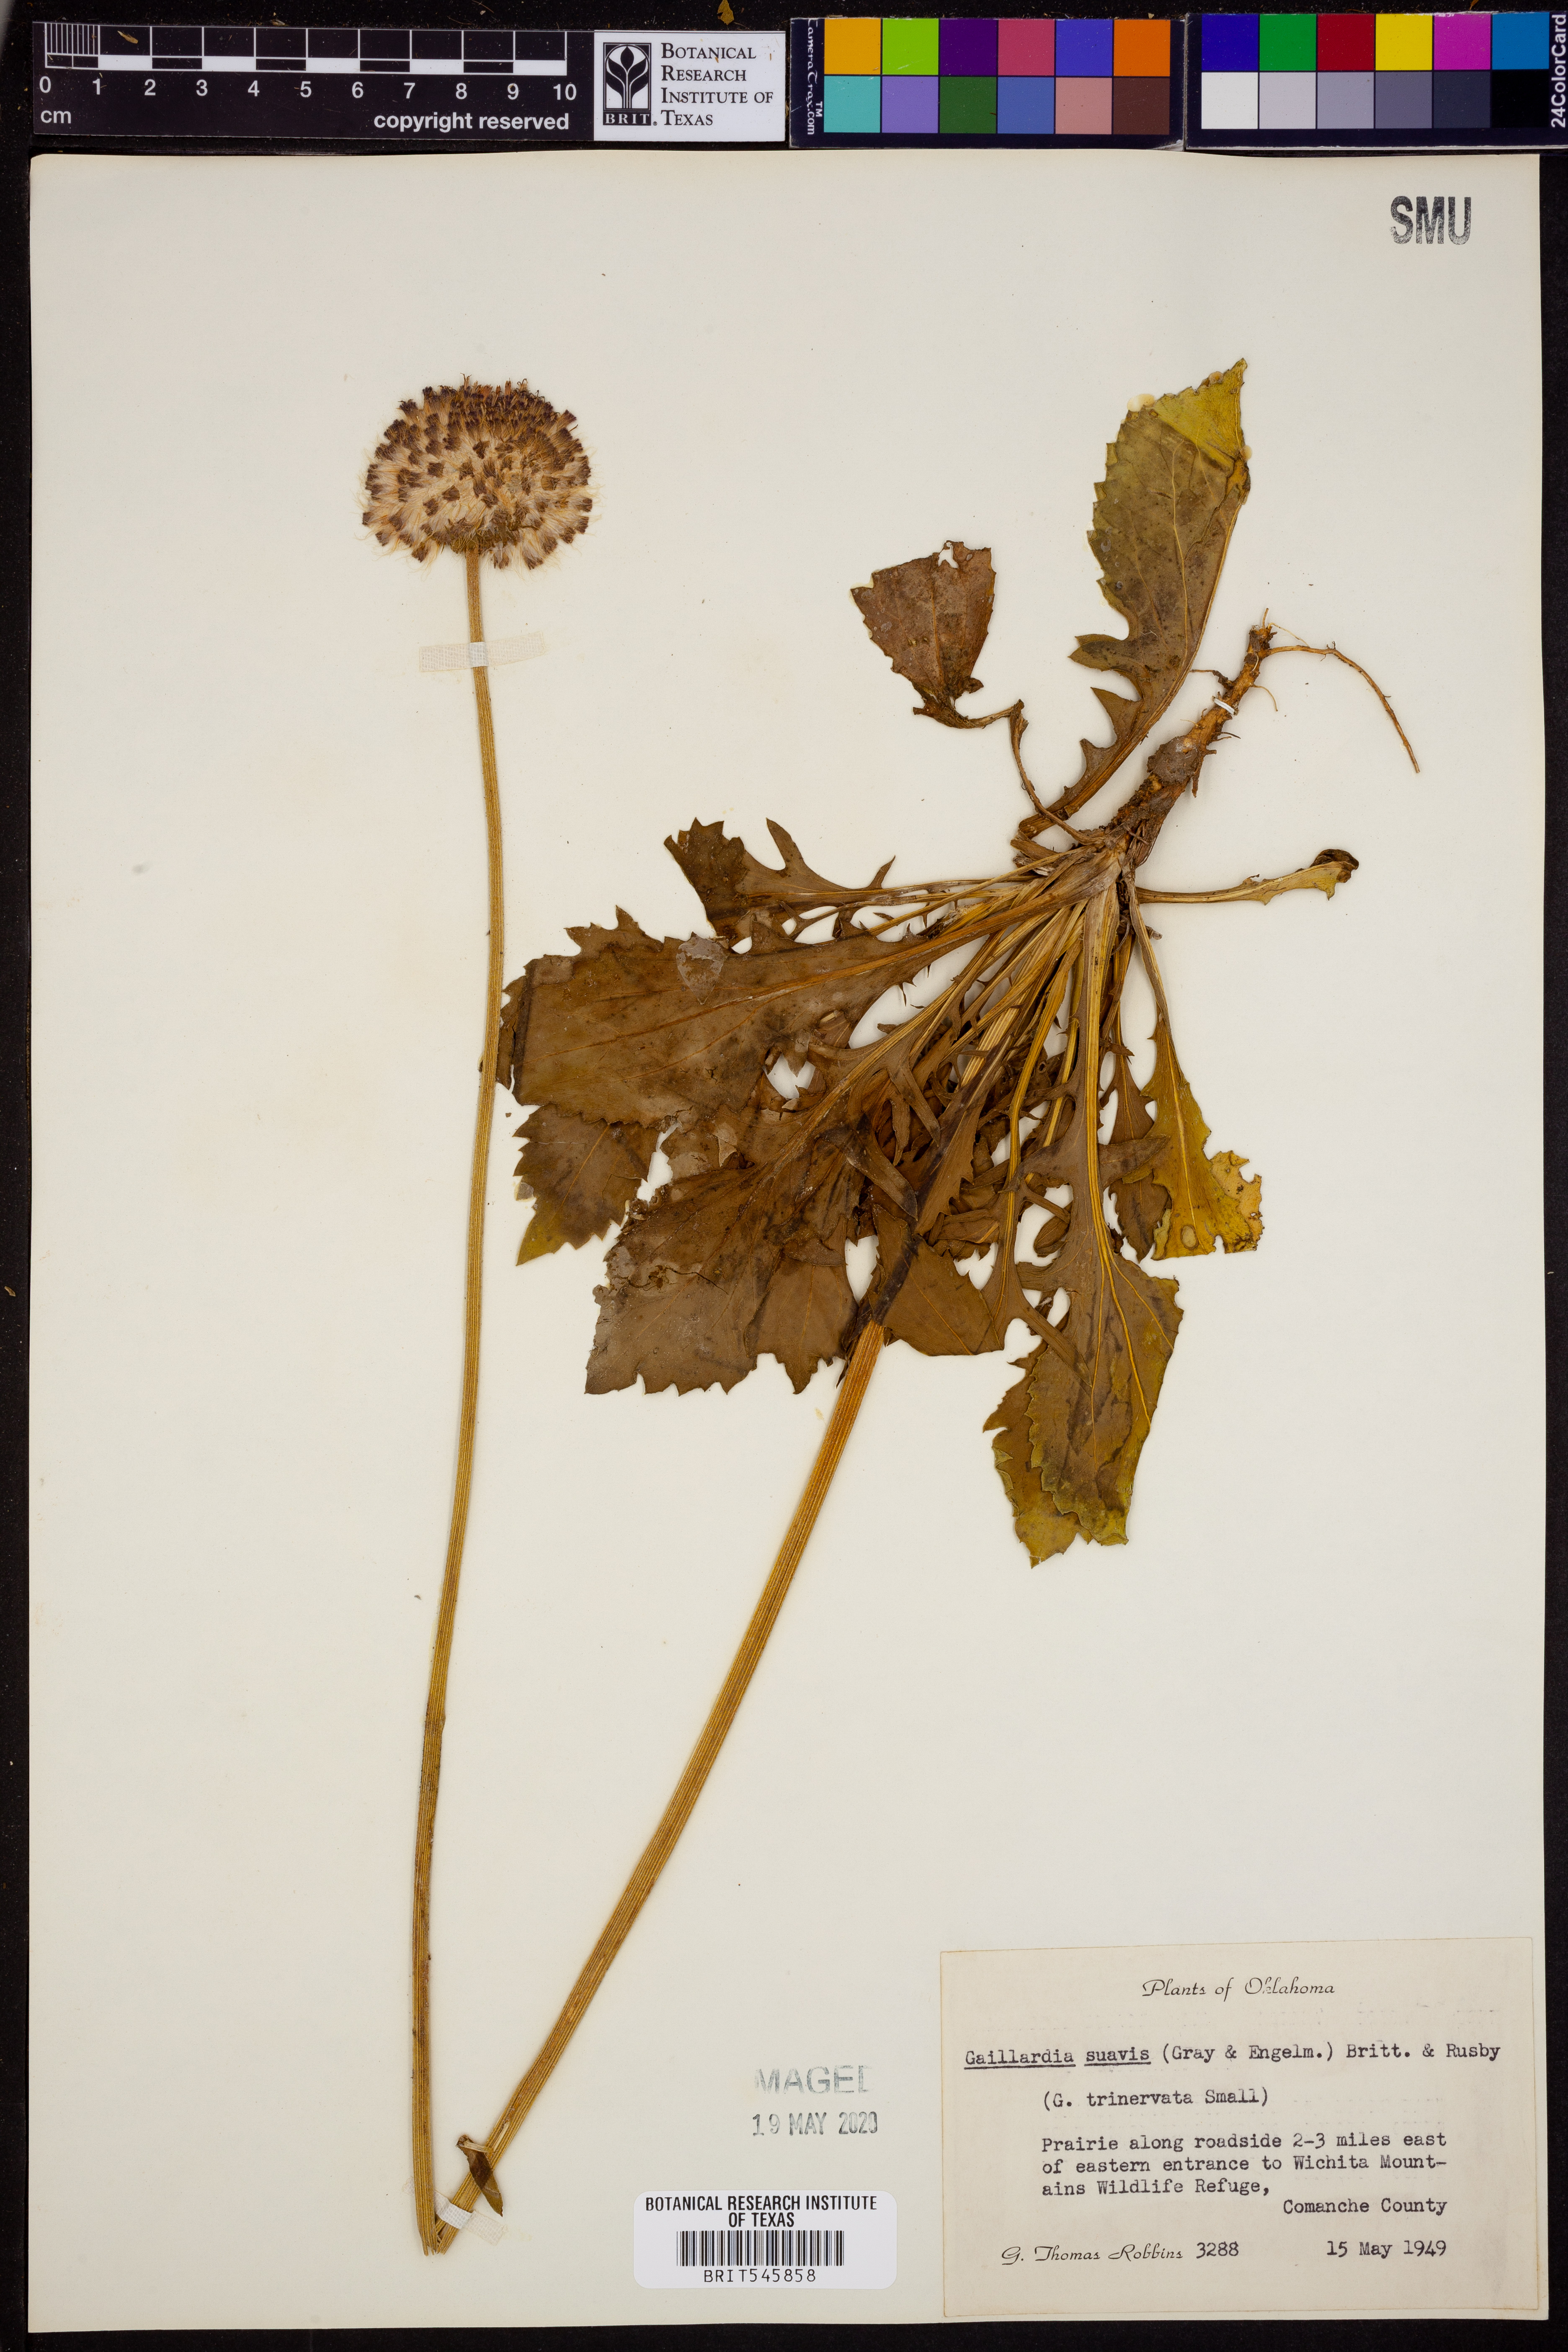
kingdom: Plantae
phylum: Tracheophyta
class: Magnoliopsida
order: Asterales
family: Asteraceae
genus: Gaillardia
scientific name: Gaillardia suavis
